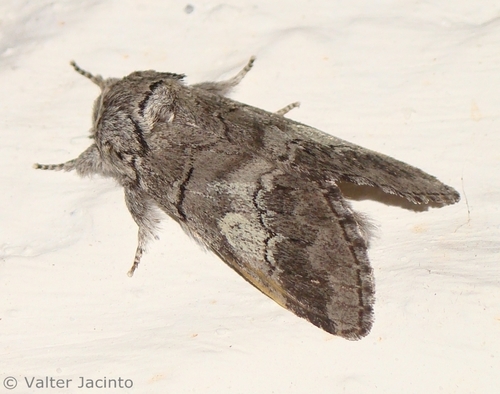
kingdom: Animalia
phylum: Arthropoda
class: Insecta
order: Lepidoptera
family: Notodontidae
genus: Drymonia
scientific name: Drymonia querna
